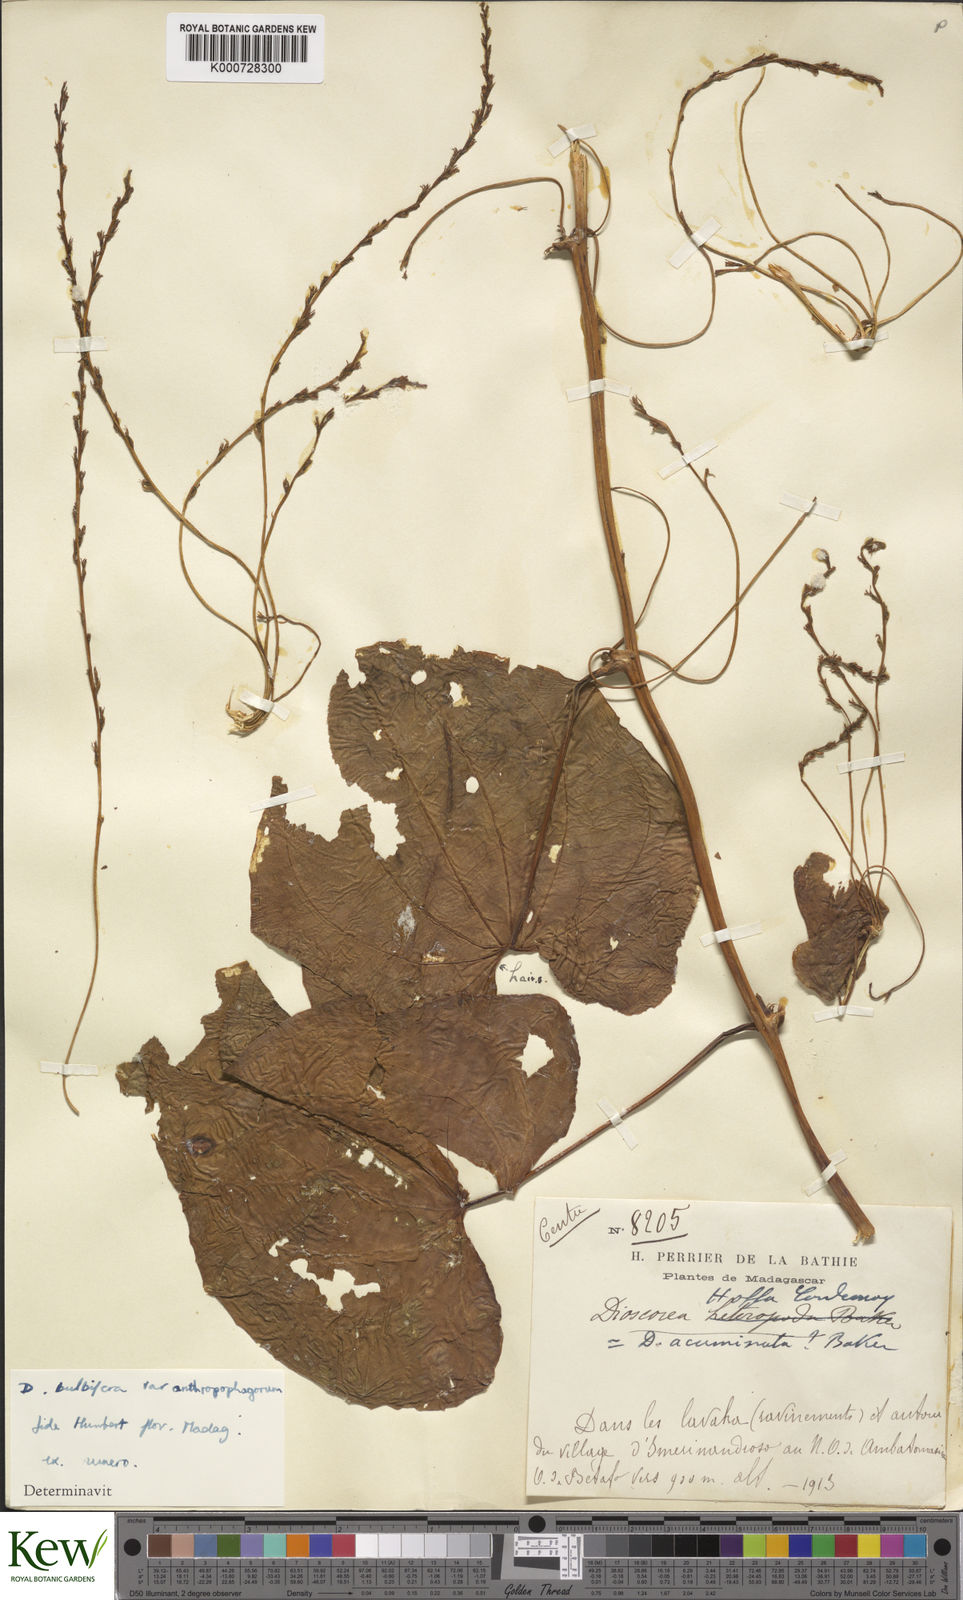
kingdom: Plantae
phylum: Tracheophyta
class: Liliopsida
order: Dioscoreales
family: Dioscoreaceae
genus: Dioscorea
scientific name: Dioscorea bulbifera
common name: Air yam
